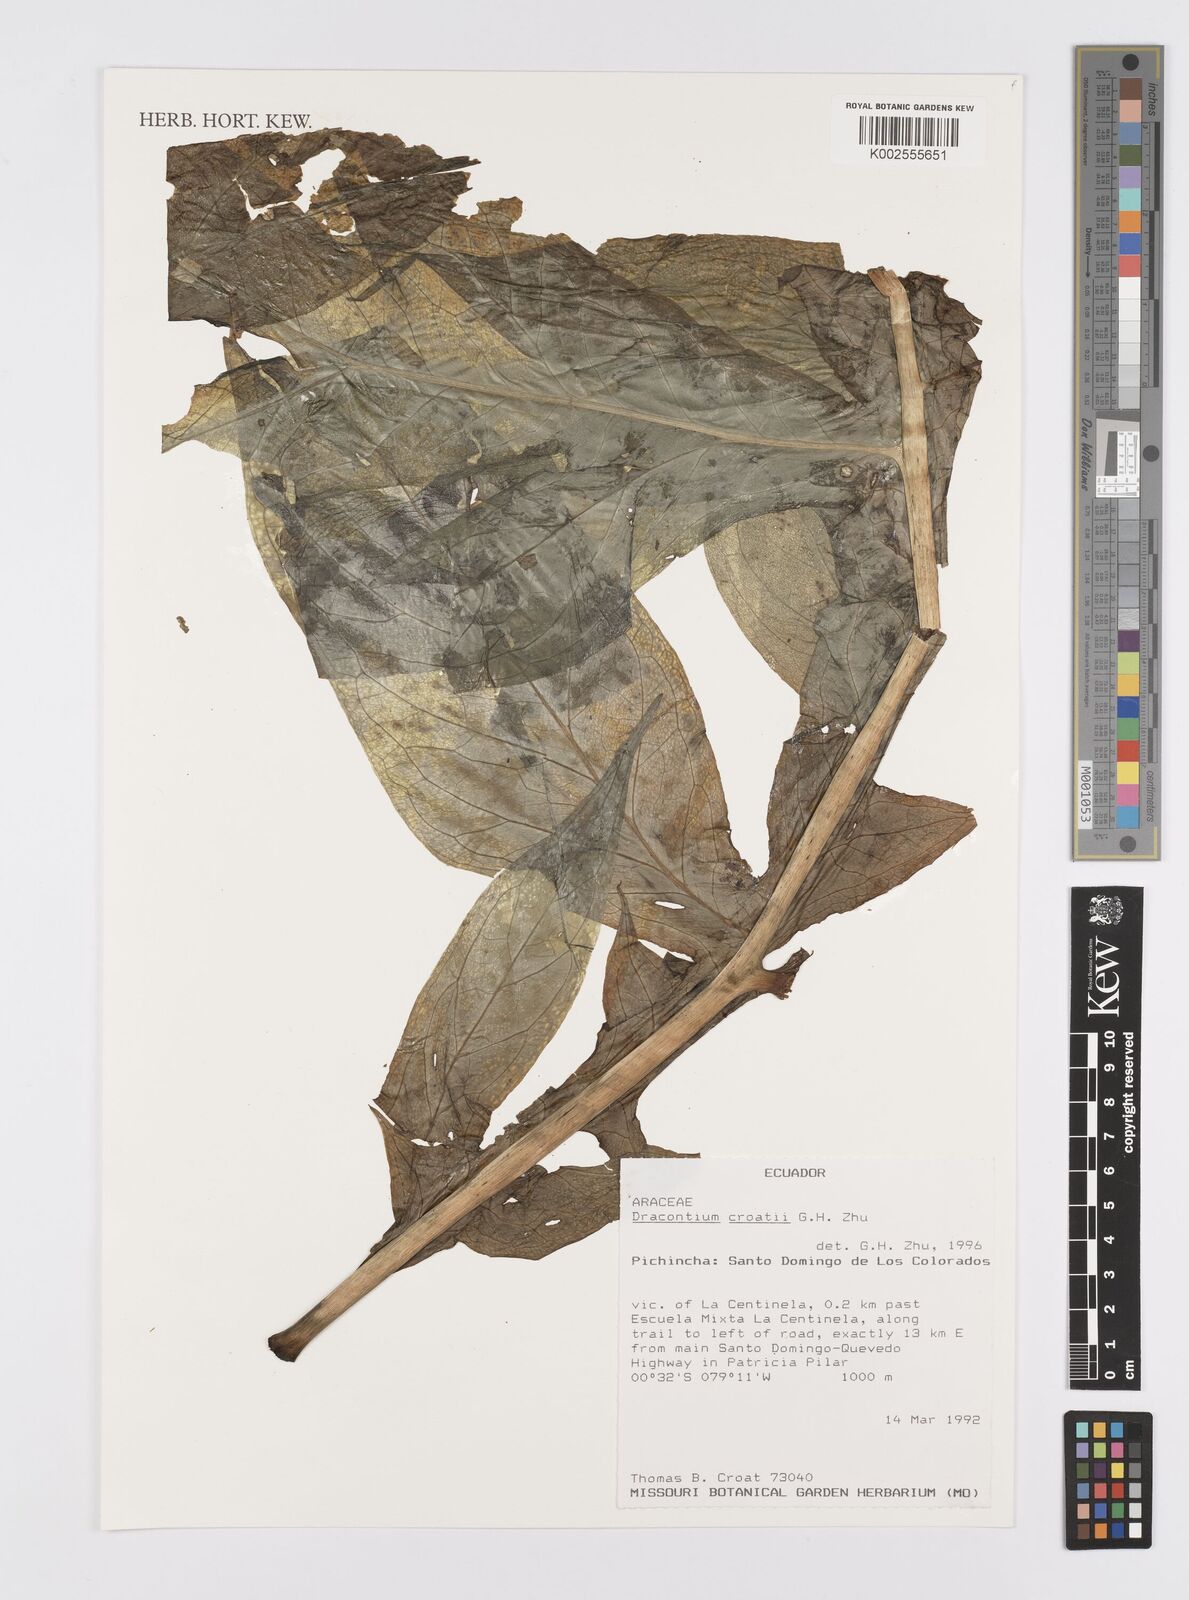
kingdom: Plantae
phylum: Tracheophyta
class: Liliopsida
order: Alismatales
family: Araceae
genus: Dracontium
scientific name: Dracontium croatii
